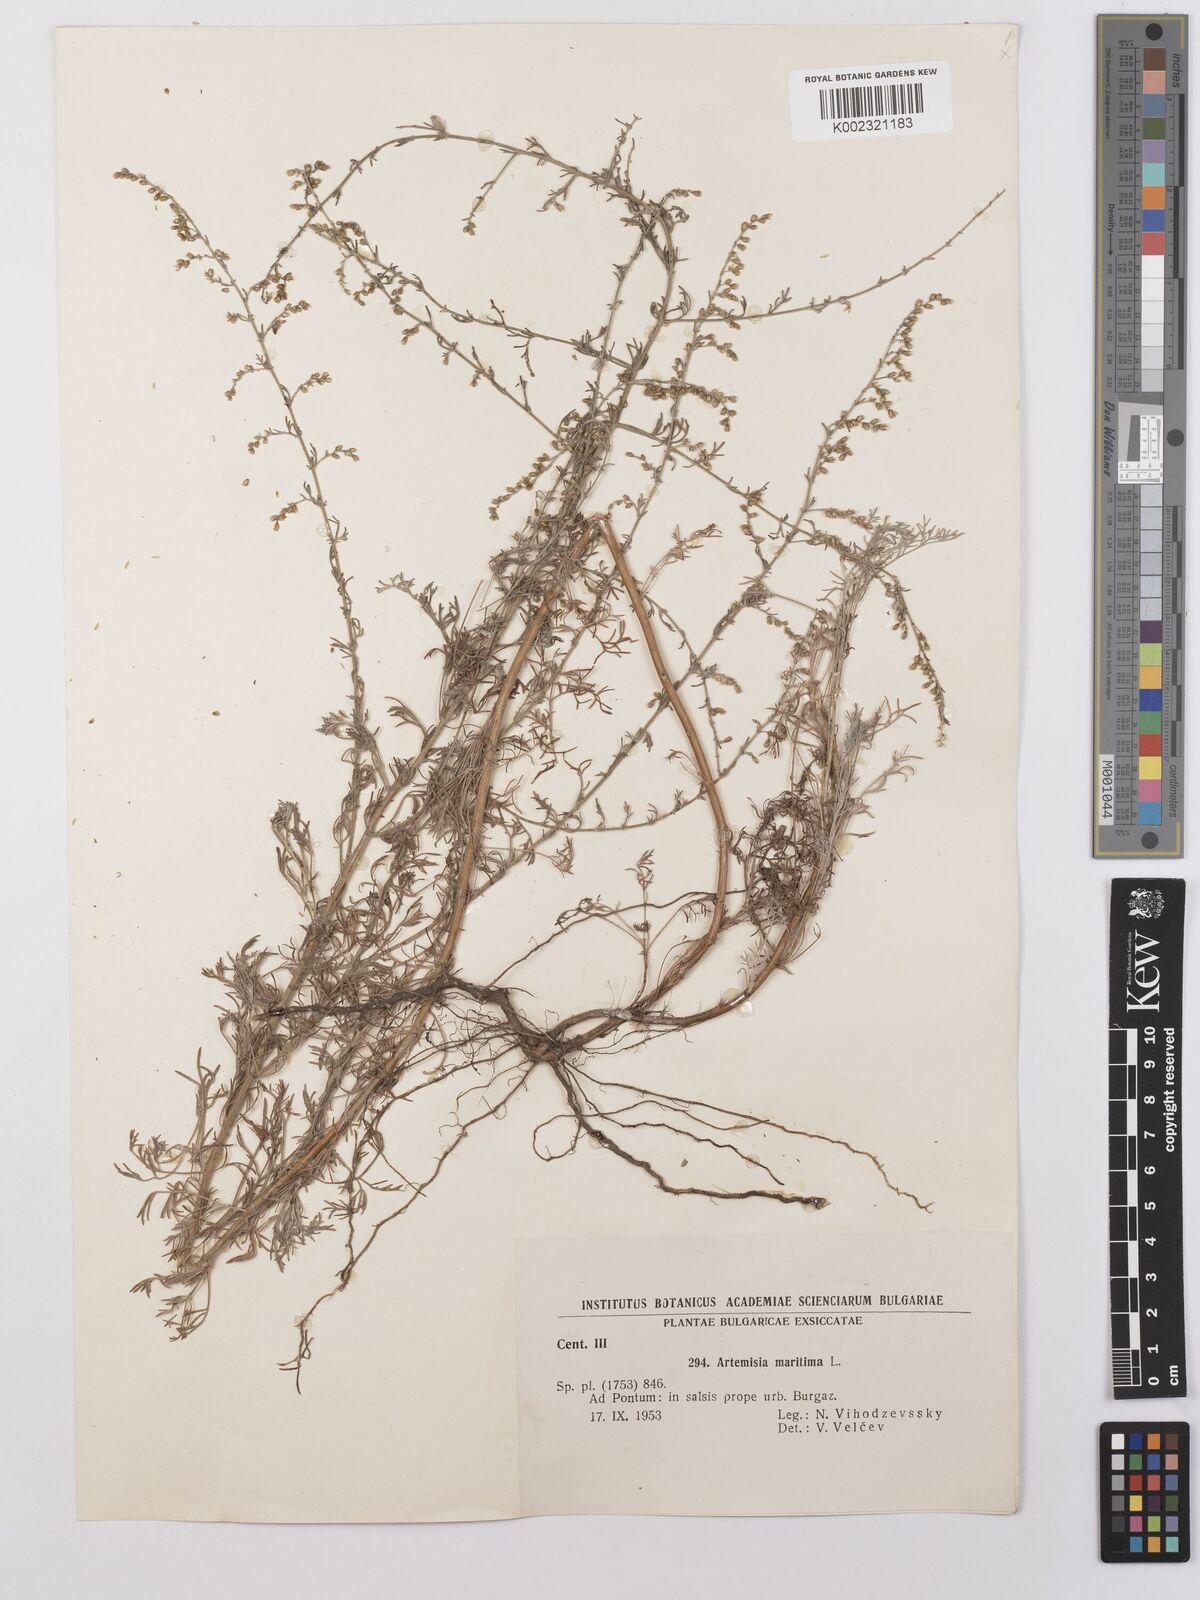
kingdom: Plantae
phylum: Tracheophyta
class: Magnoliopsida
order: Asterales
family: Asteraceae
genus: Artemisia
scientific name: Artemisia maritima
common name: Wormseed
